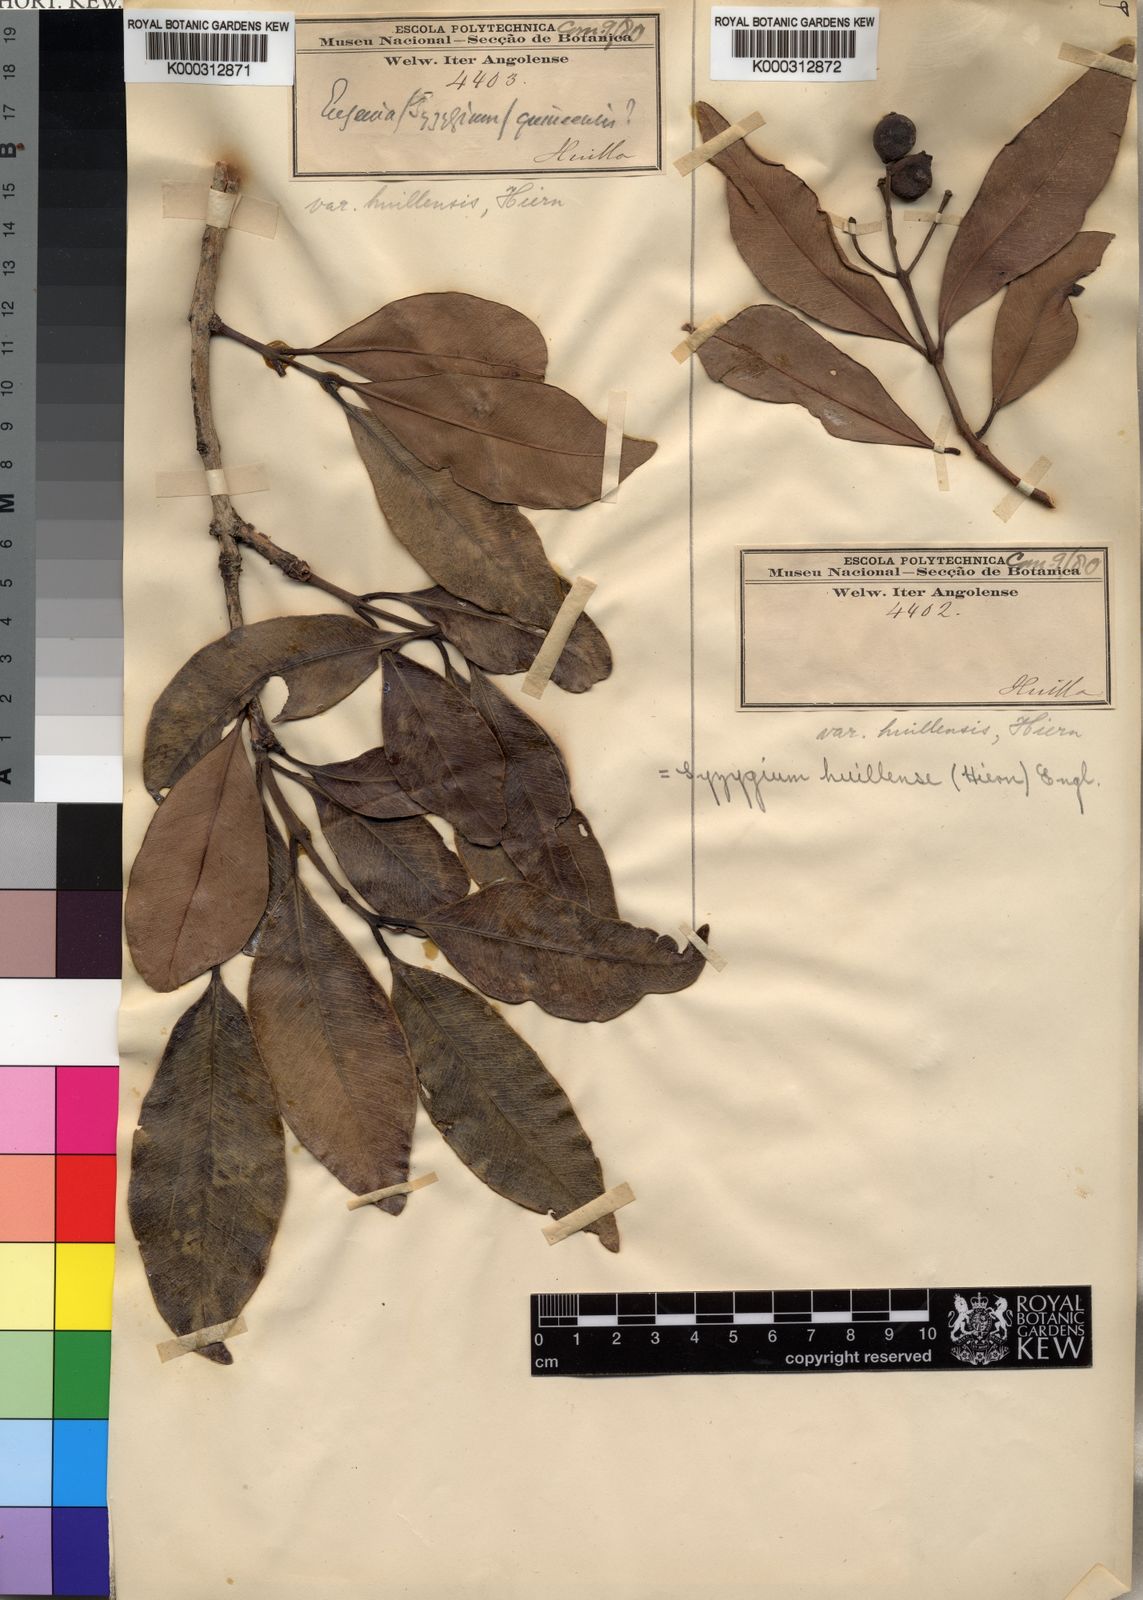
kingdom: Plantae
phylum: Tracheophyta
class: Magnoliopsida
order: Myrtales
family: Myrtaceae
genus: Syzygium
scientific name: Syzygium guineense
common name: Water-pear
